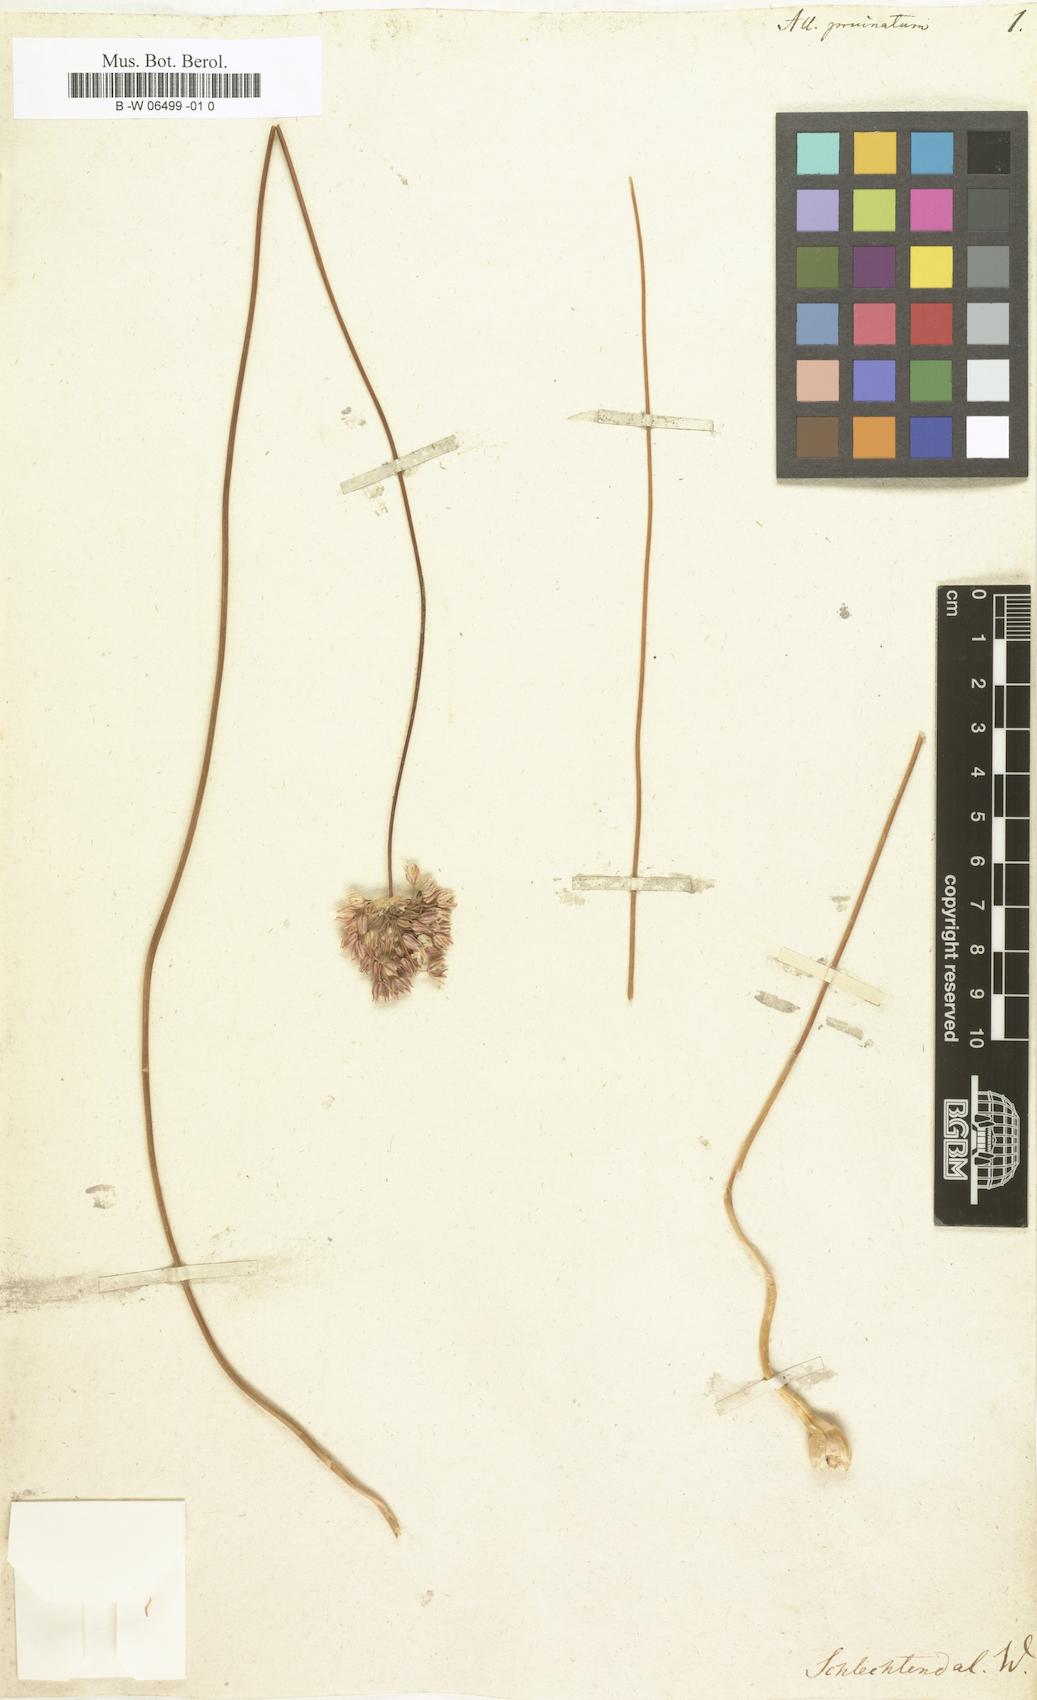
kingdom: Plantae
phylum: Tracheophyta
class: Liliopsida
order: Asparagales
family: Amaryllidaceae
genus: Allium
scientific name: Allium pruinatum
